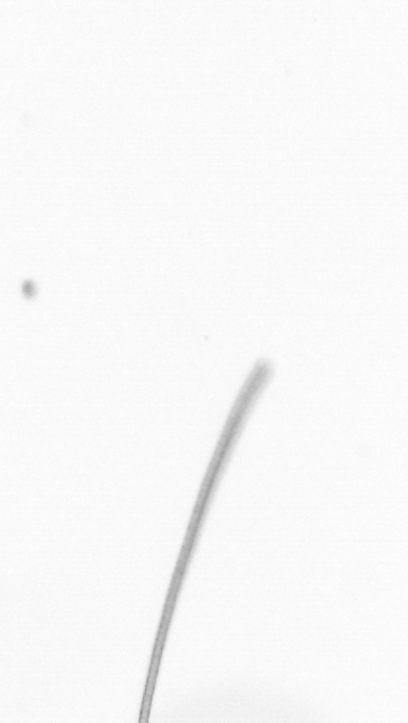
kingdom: Chromista
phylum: Ochrophyta
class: Bacillariophyceae
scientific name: Bacillariophyceae
